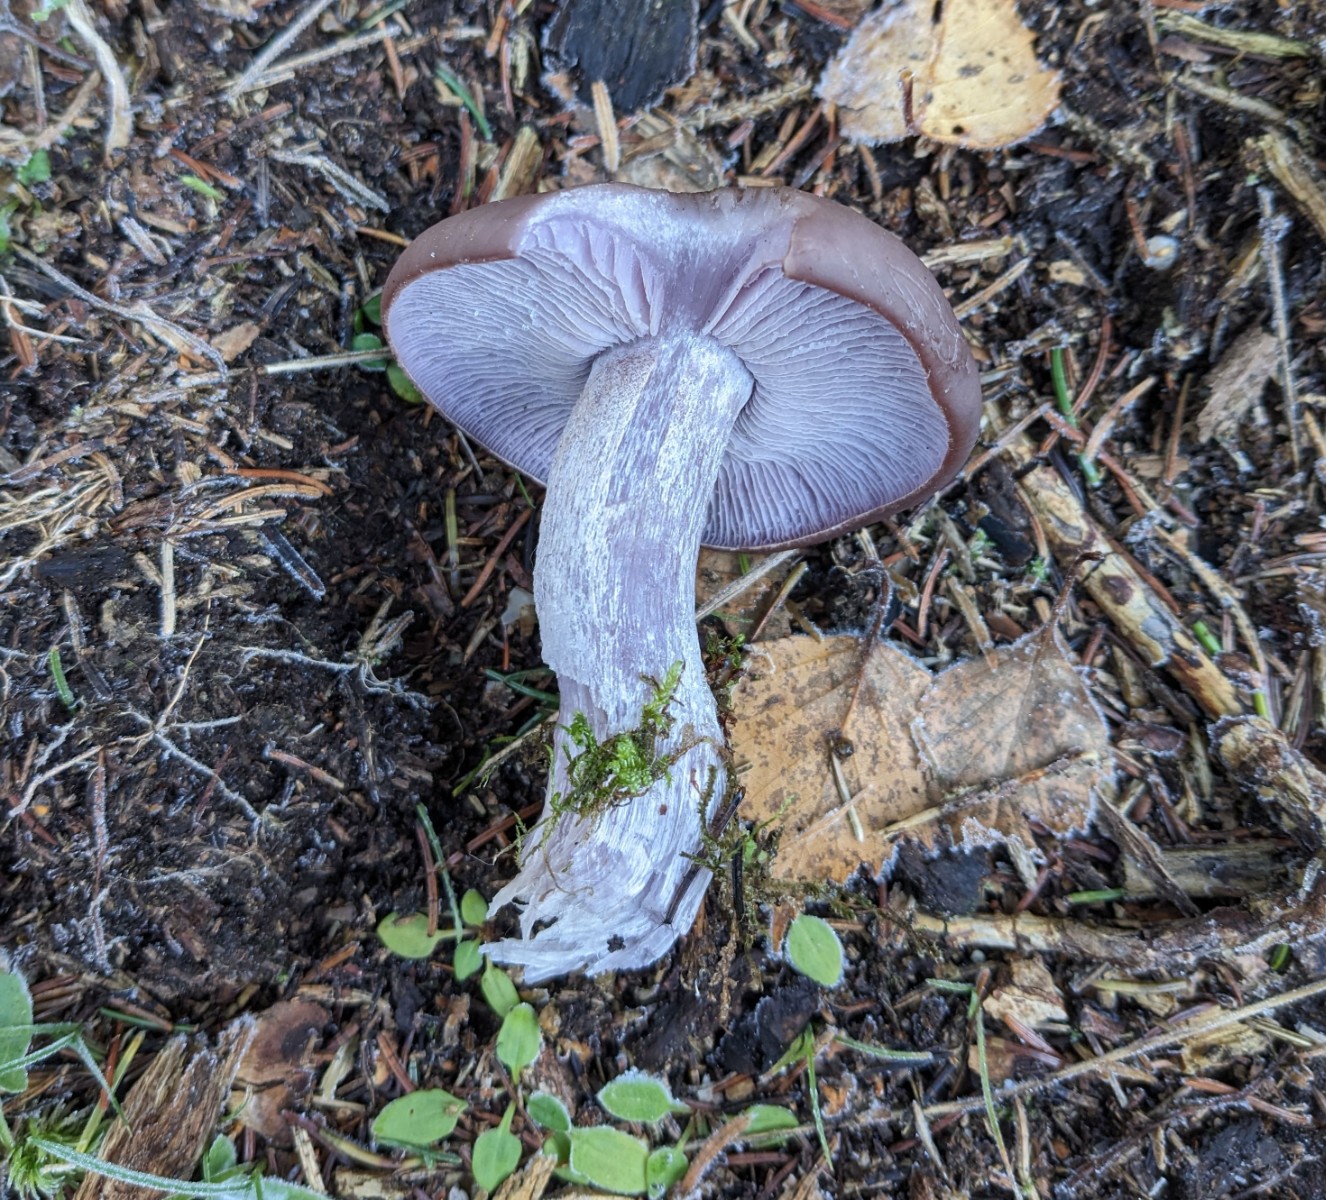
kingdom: Fungi
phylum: Basidiomycota
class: Agaricomycetes
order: Agaricales
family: Tricholomataceae
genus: Lepista
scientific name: Lepista nuda
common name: violet hekseringshat
